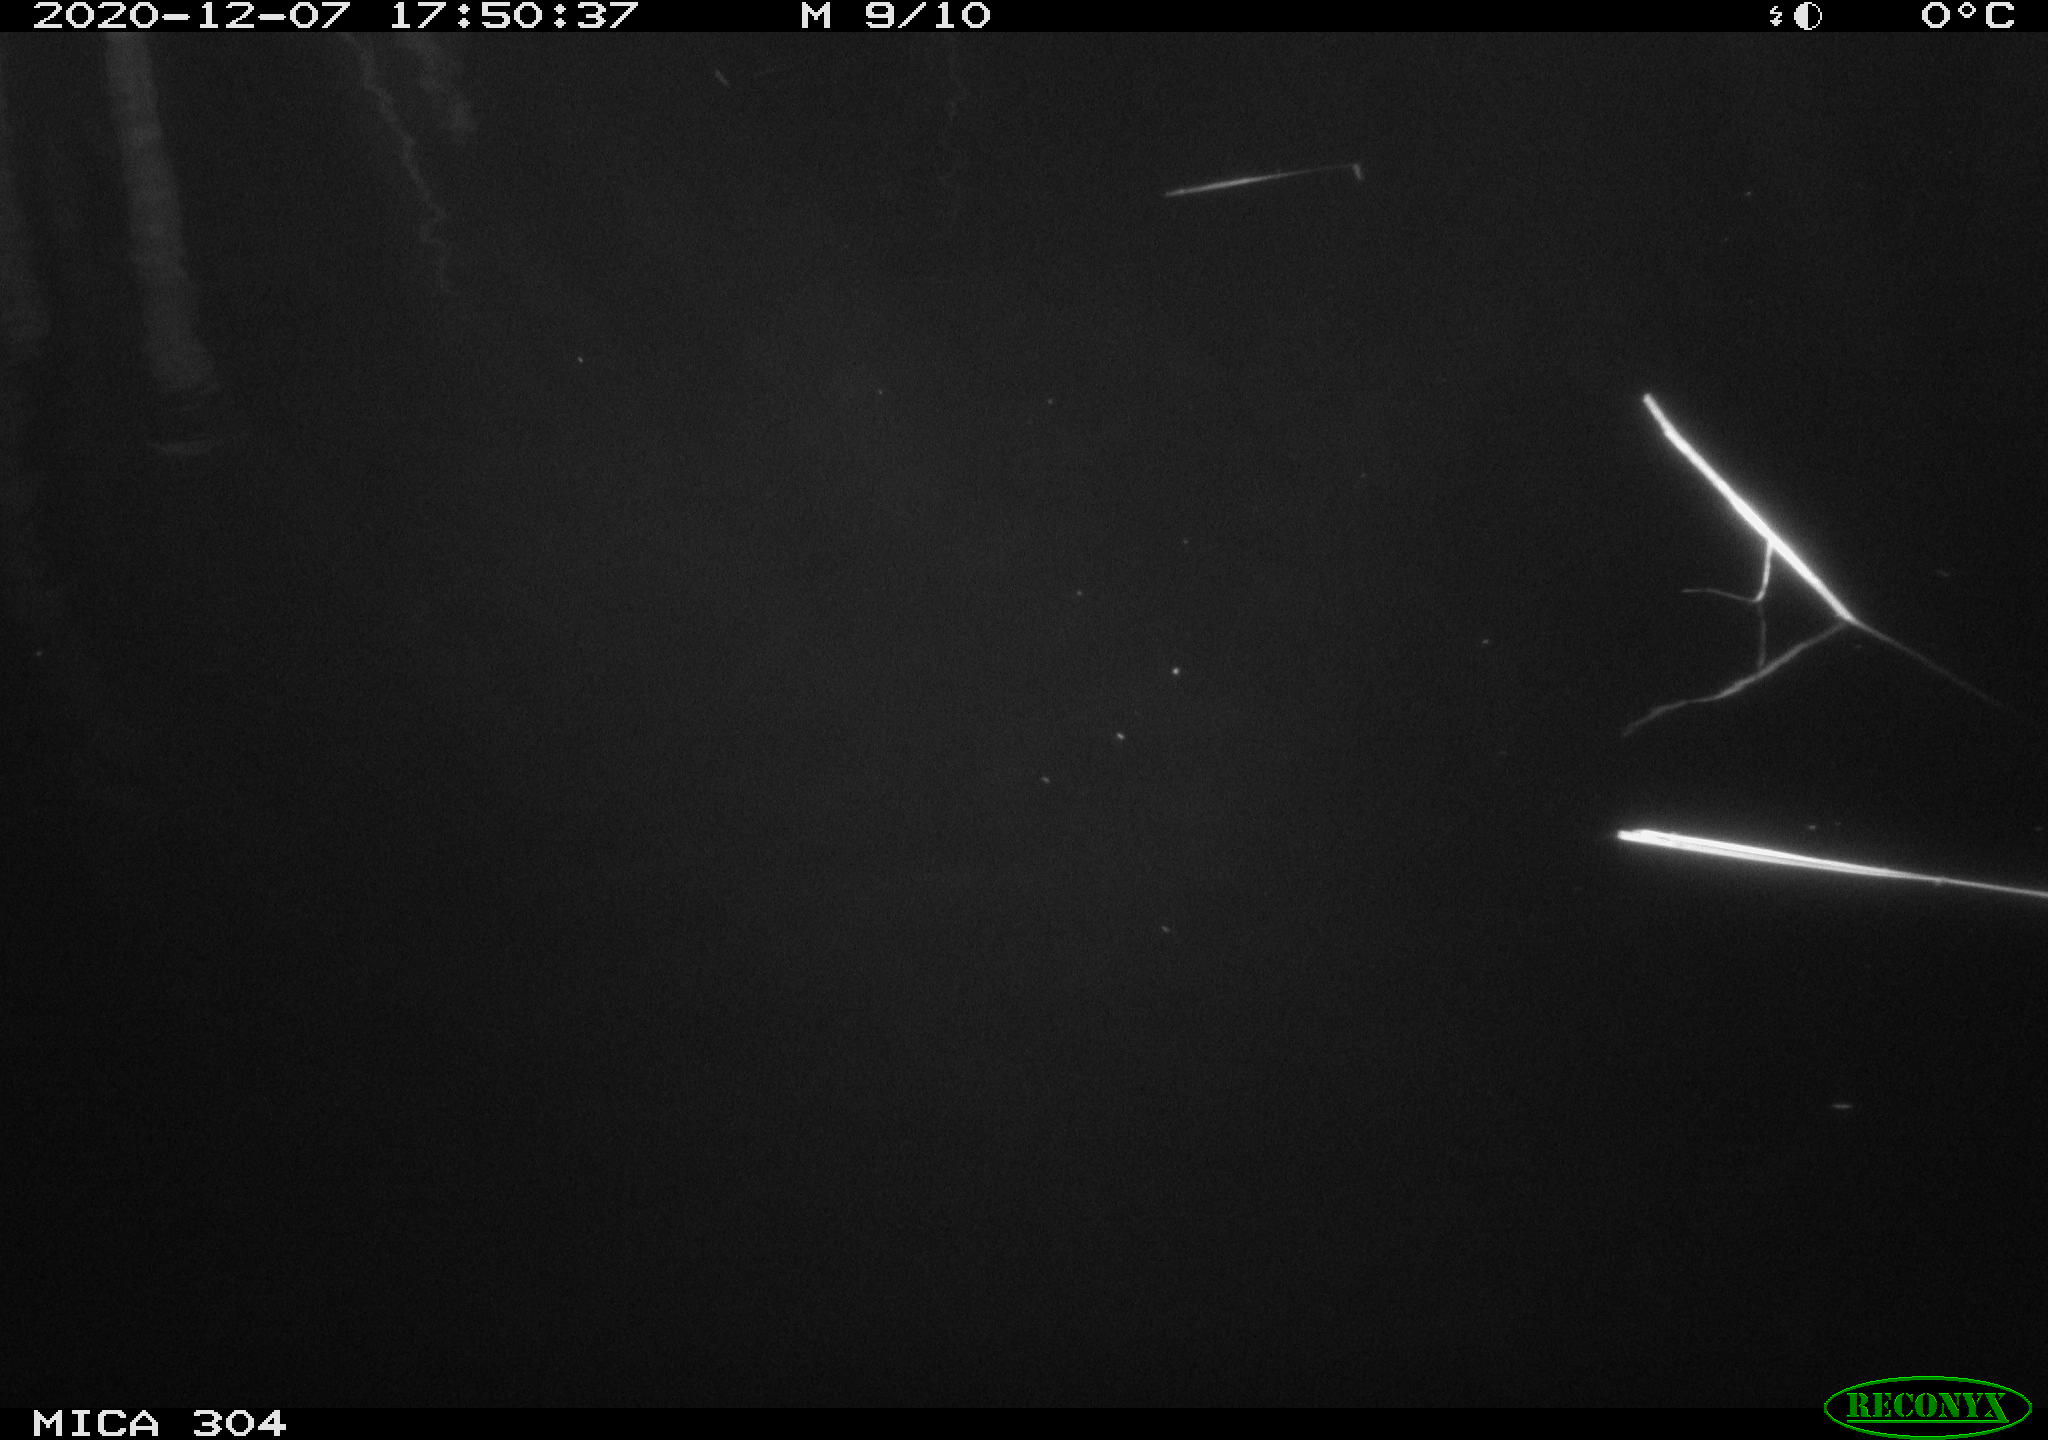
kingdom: Animalia
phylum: Chordata
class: Mammalia
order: Rodentia
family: Muridae
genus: Rattus
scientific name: Rattus norvegicus
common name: Brown rat
